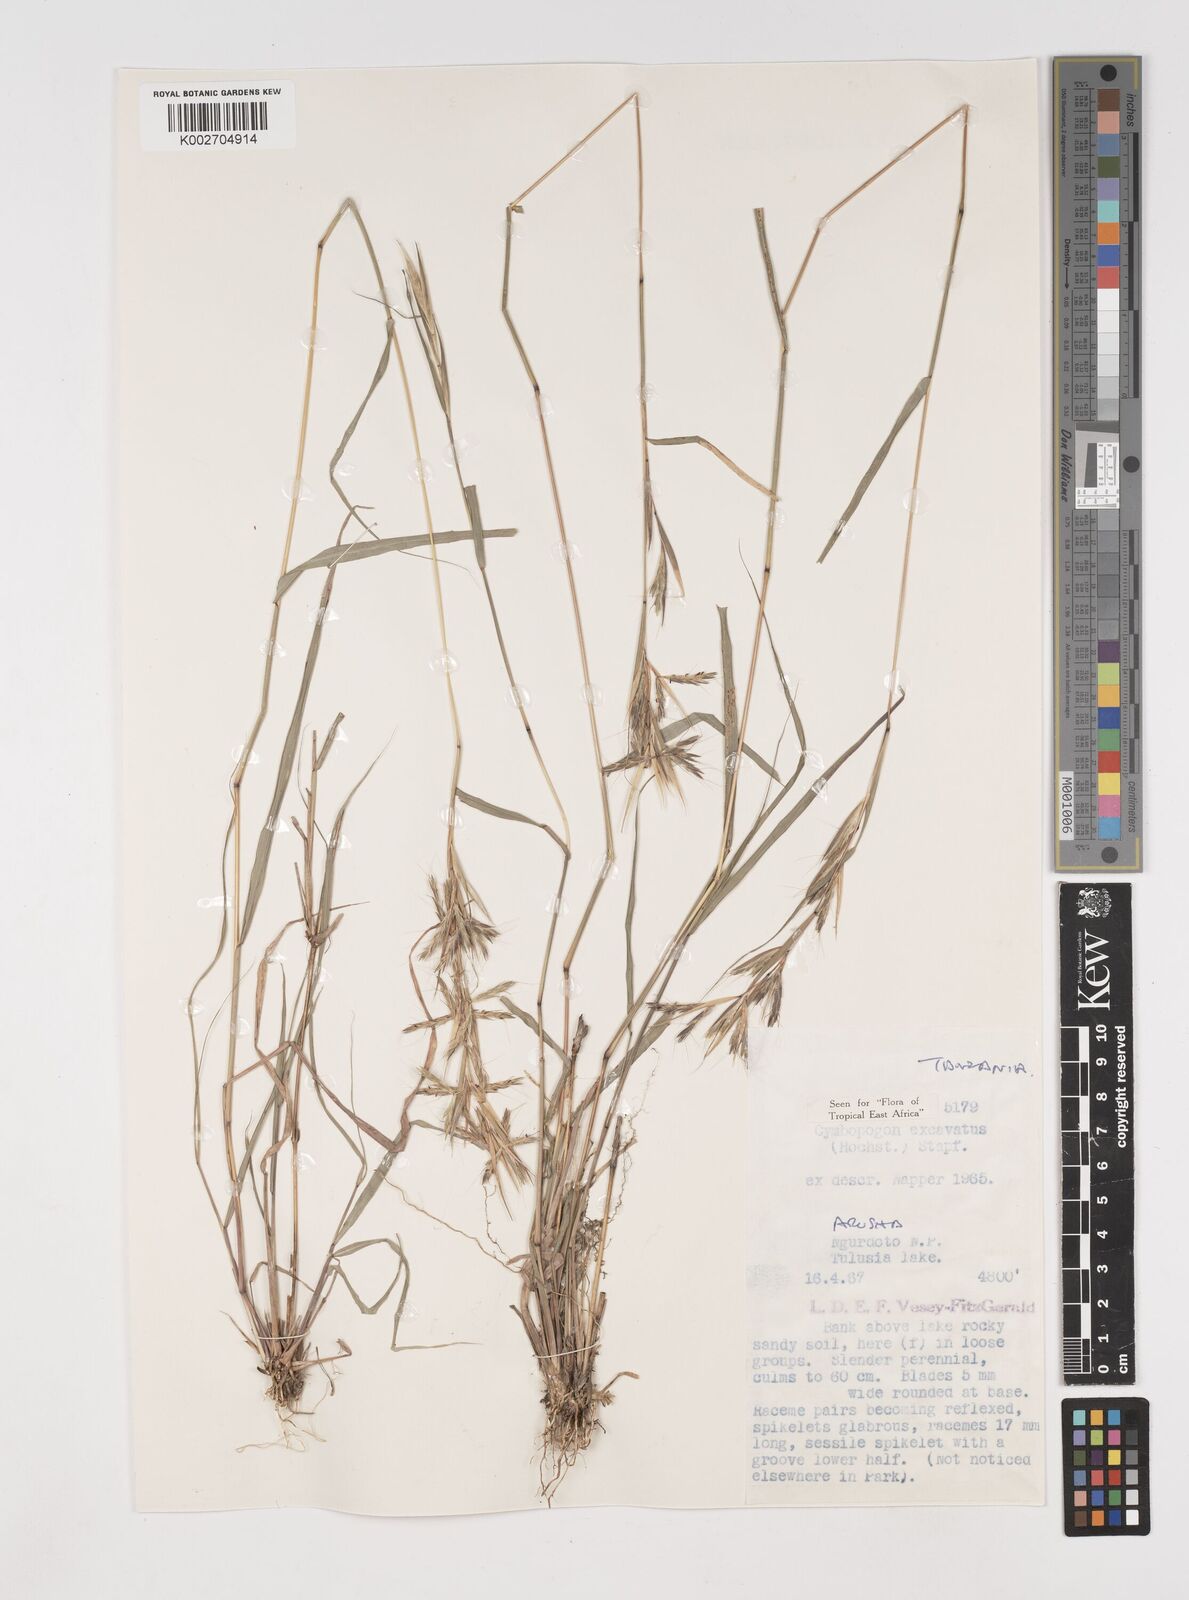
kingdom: Plantae
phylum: Tracheophyta
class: Liliopsida
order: Poales
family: Poaceae
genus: Cymbopogon
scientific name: Cymbopogon caesius
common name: Kachi grass
